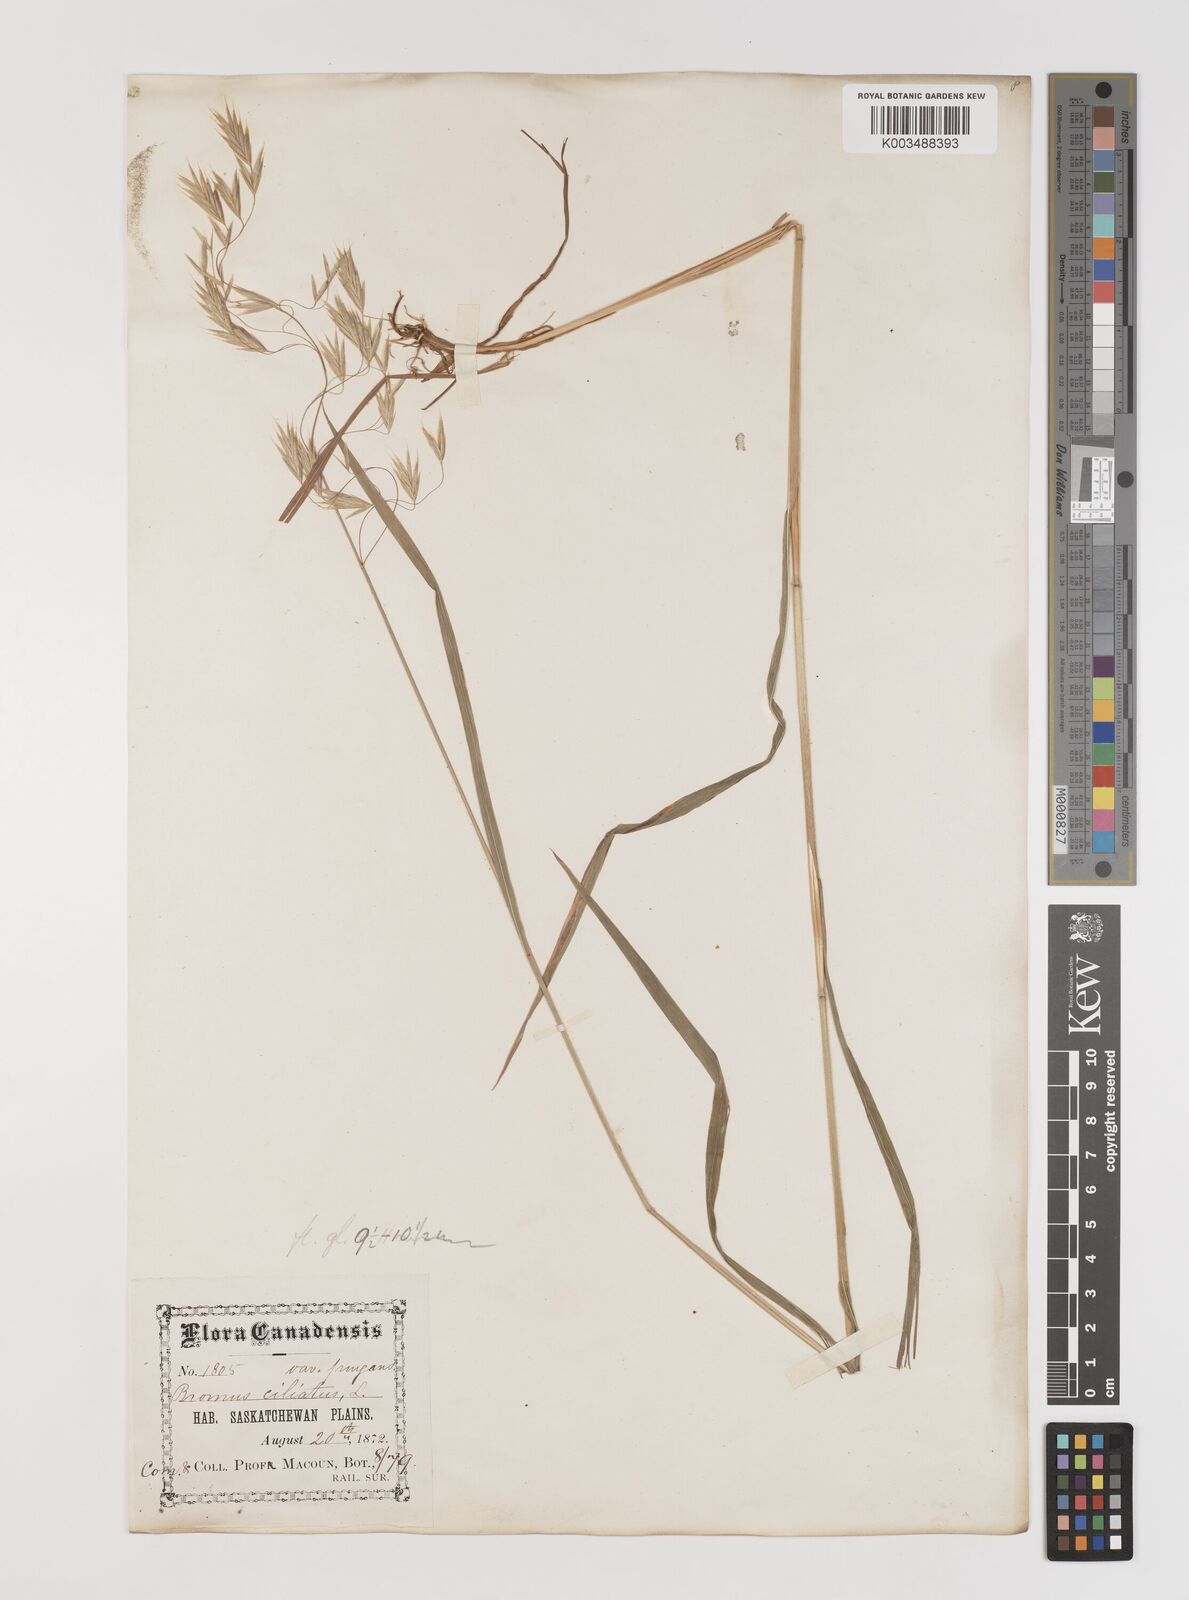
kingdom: Plantae
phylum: Tracheophyta
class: Liliopsida
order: Poales
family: Poaceae
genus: Bromus
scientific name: Bromus ciliatus
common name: Fringe brome
